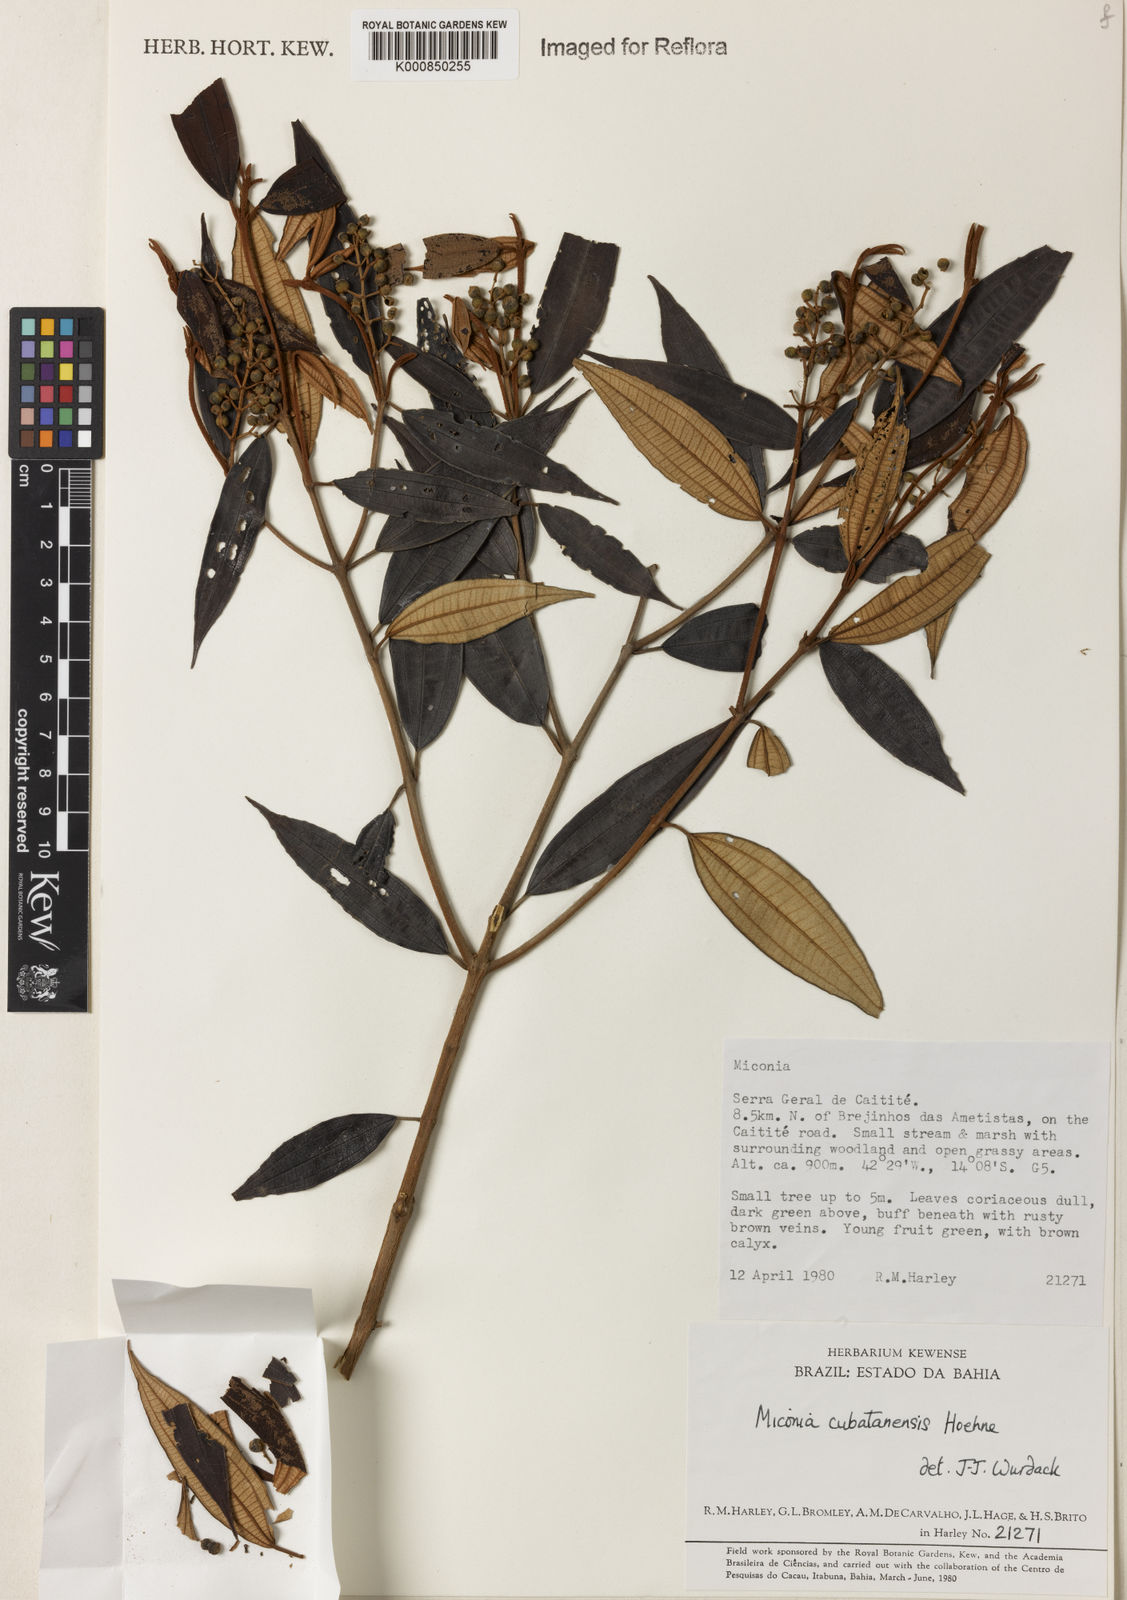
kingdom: Plantae
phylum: Tracheophyta
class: Magnoliopsida
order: Myrtales
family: Melastomataceae
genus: Miconia
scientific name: Miconia cubatanensis
